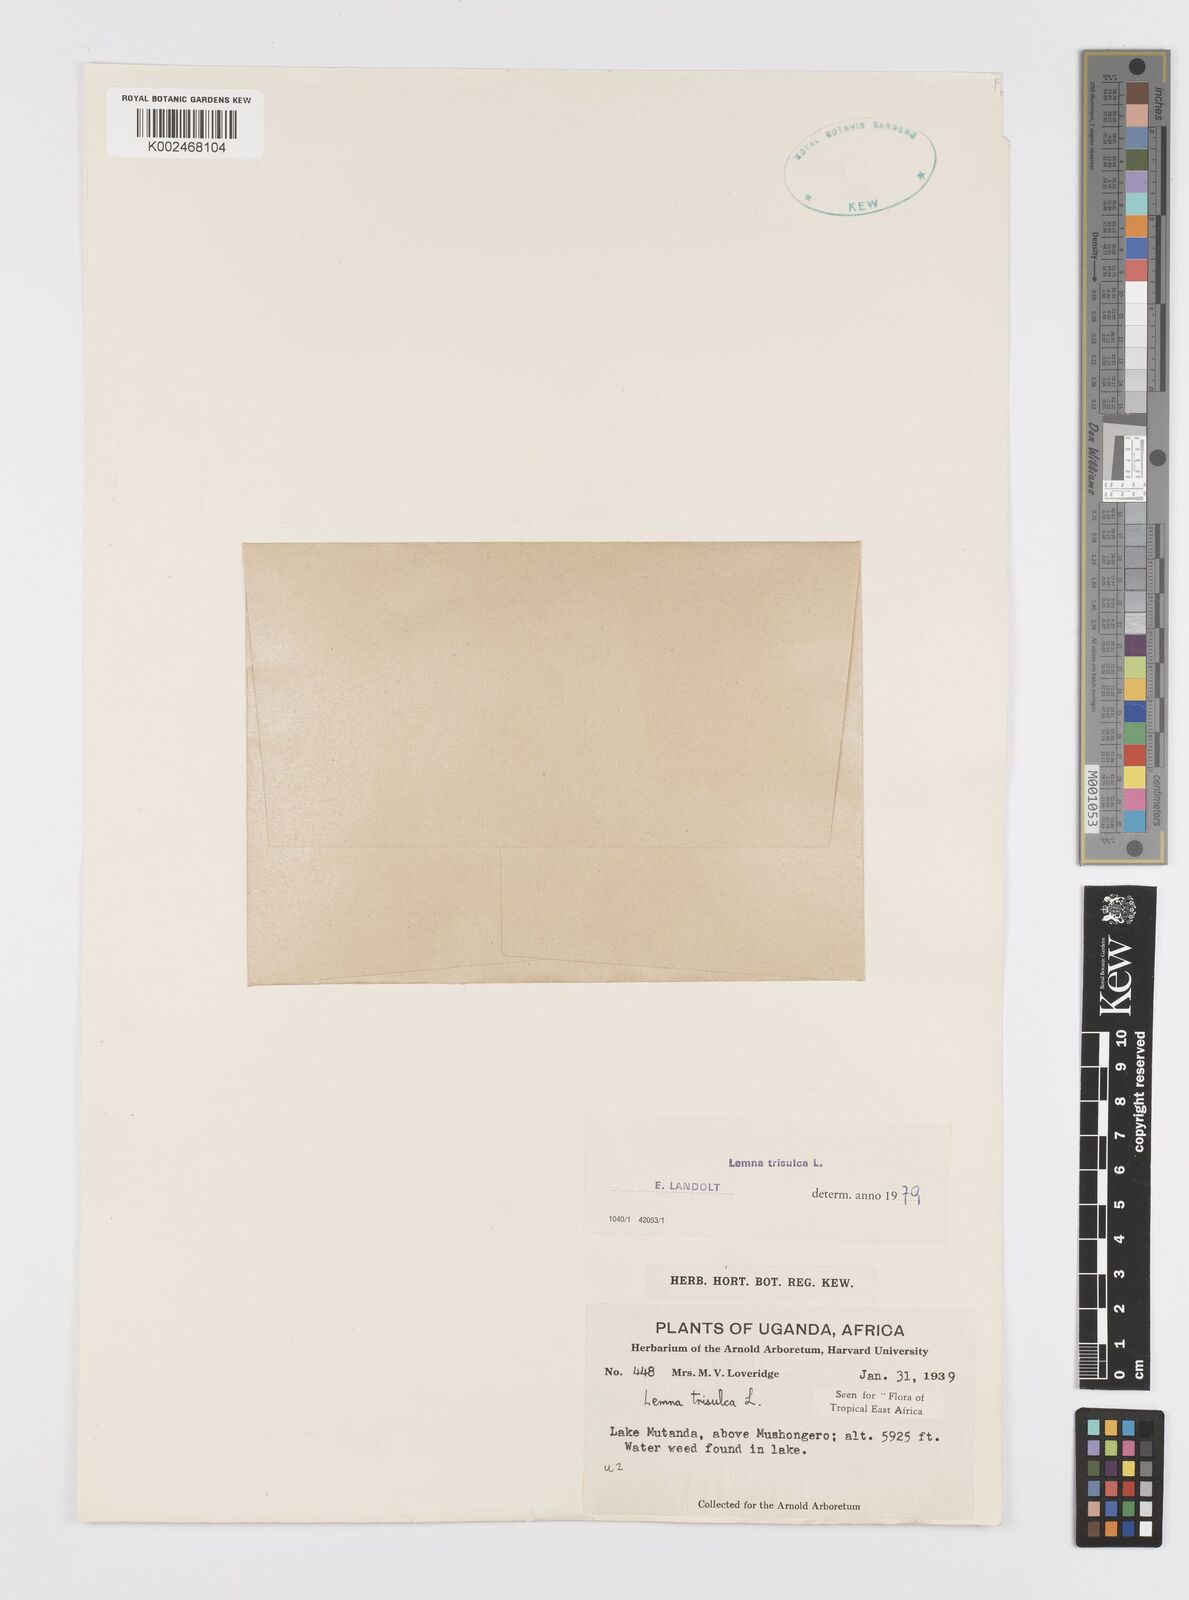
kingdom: Plantae
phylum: Tracheophyta
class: Liliopsida
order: Alismatales
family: Araceae
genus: Lemna
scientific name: Lemna trisulca
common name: Ivy-leaved duckweed
